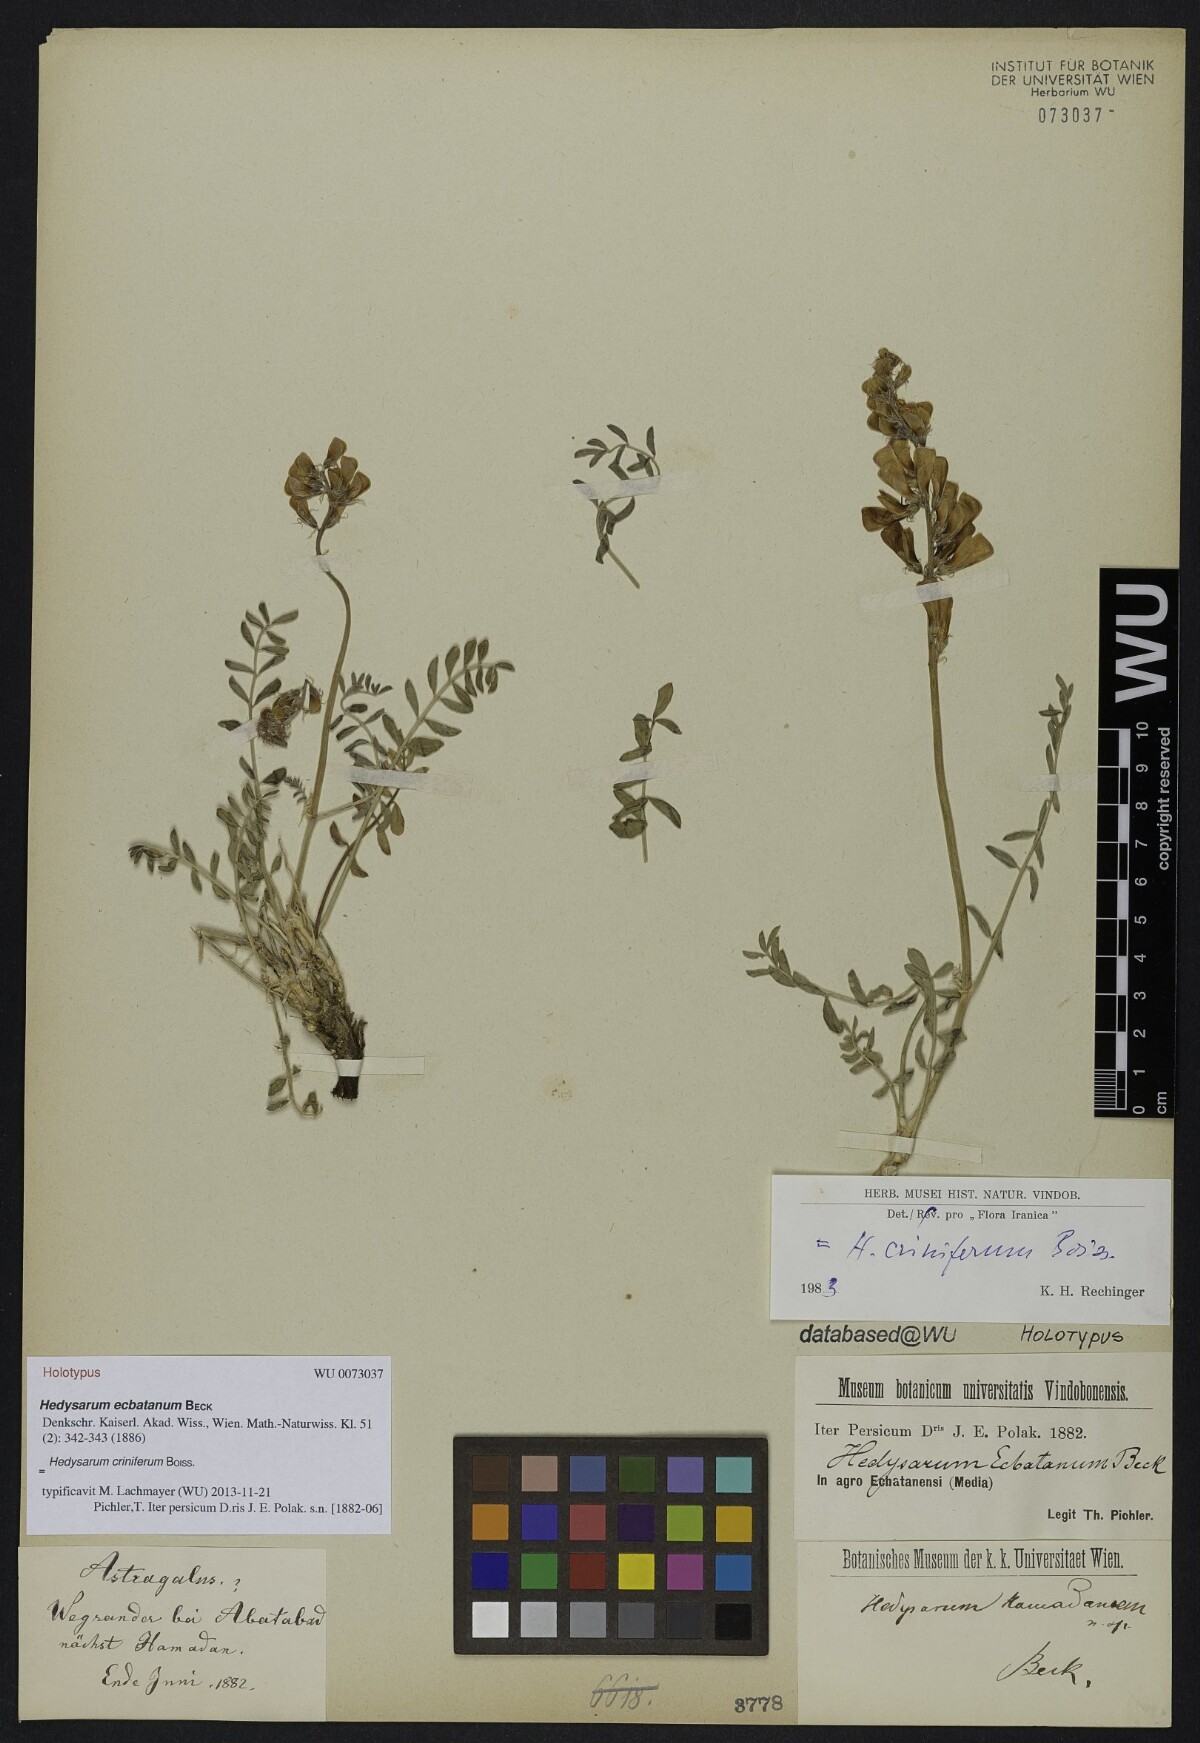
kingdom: Plantae
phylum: Tracheophyta
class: Magnoliopsida
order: Fabales
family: Fabaceae
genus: Hedysarum
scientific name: Hedysarum criniferum
